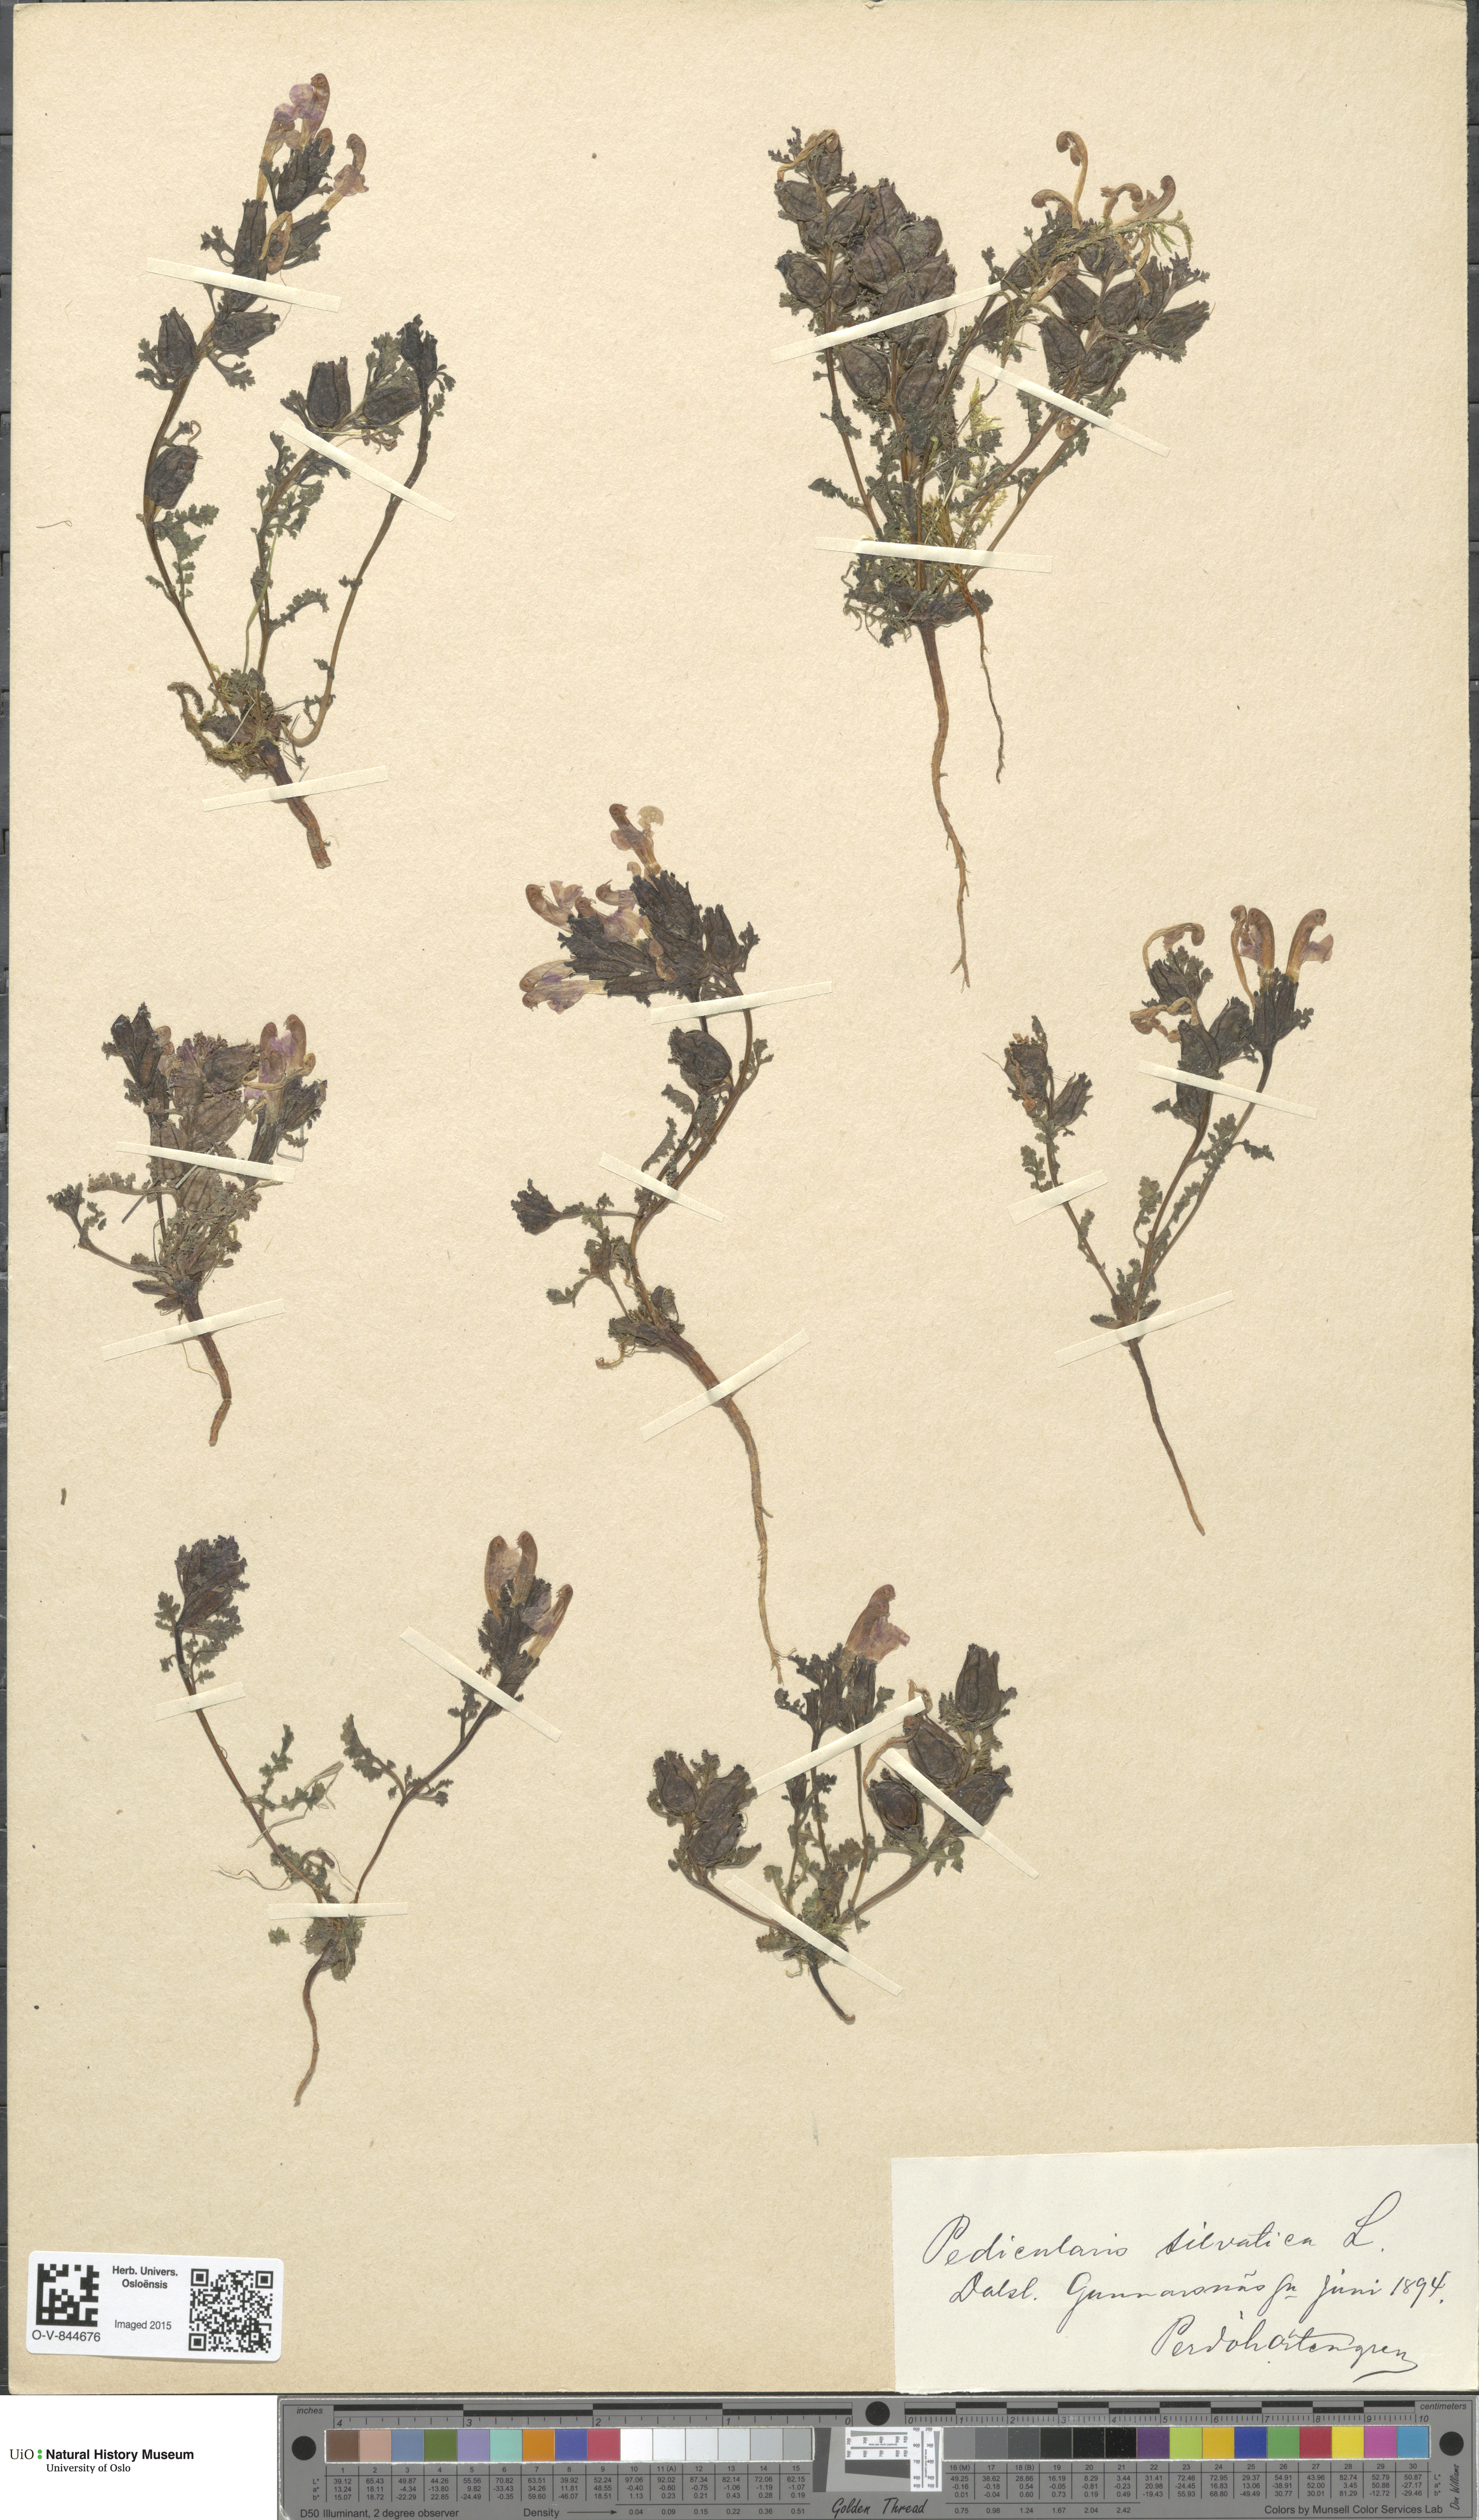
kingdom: Plantae
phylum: Tracheophyta
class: Magnoliopsida
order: Lamiales
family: Orobanchaceae
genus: Pedicularis
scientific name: Pedicularis sylvatica
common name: Lousewort
